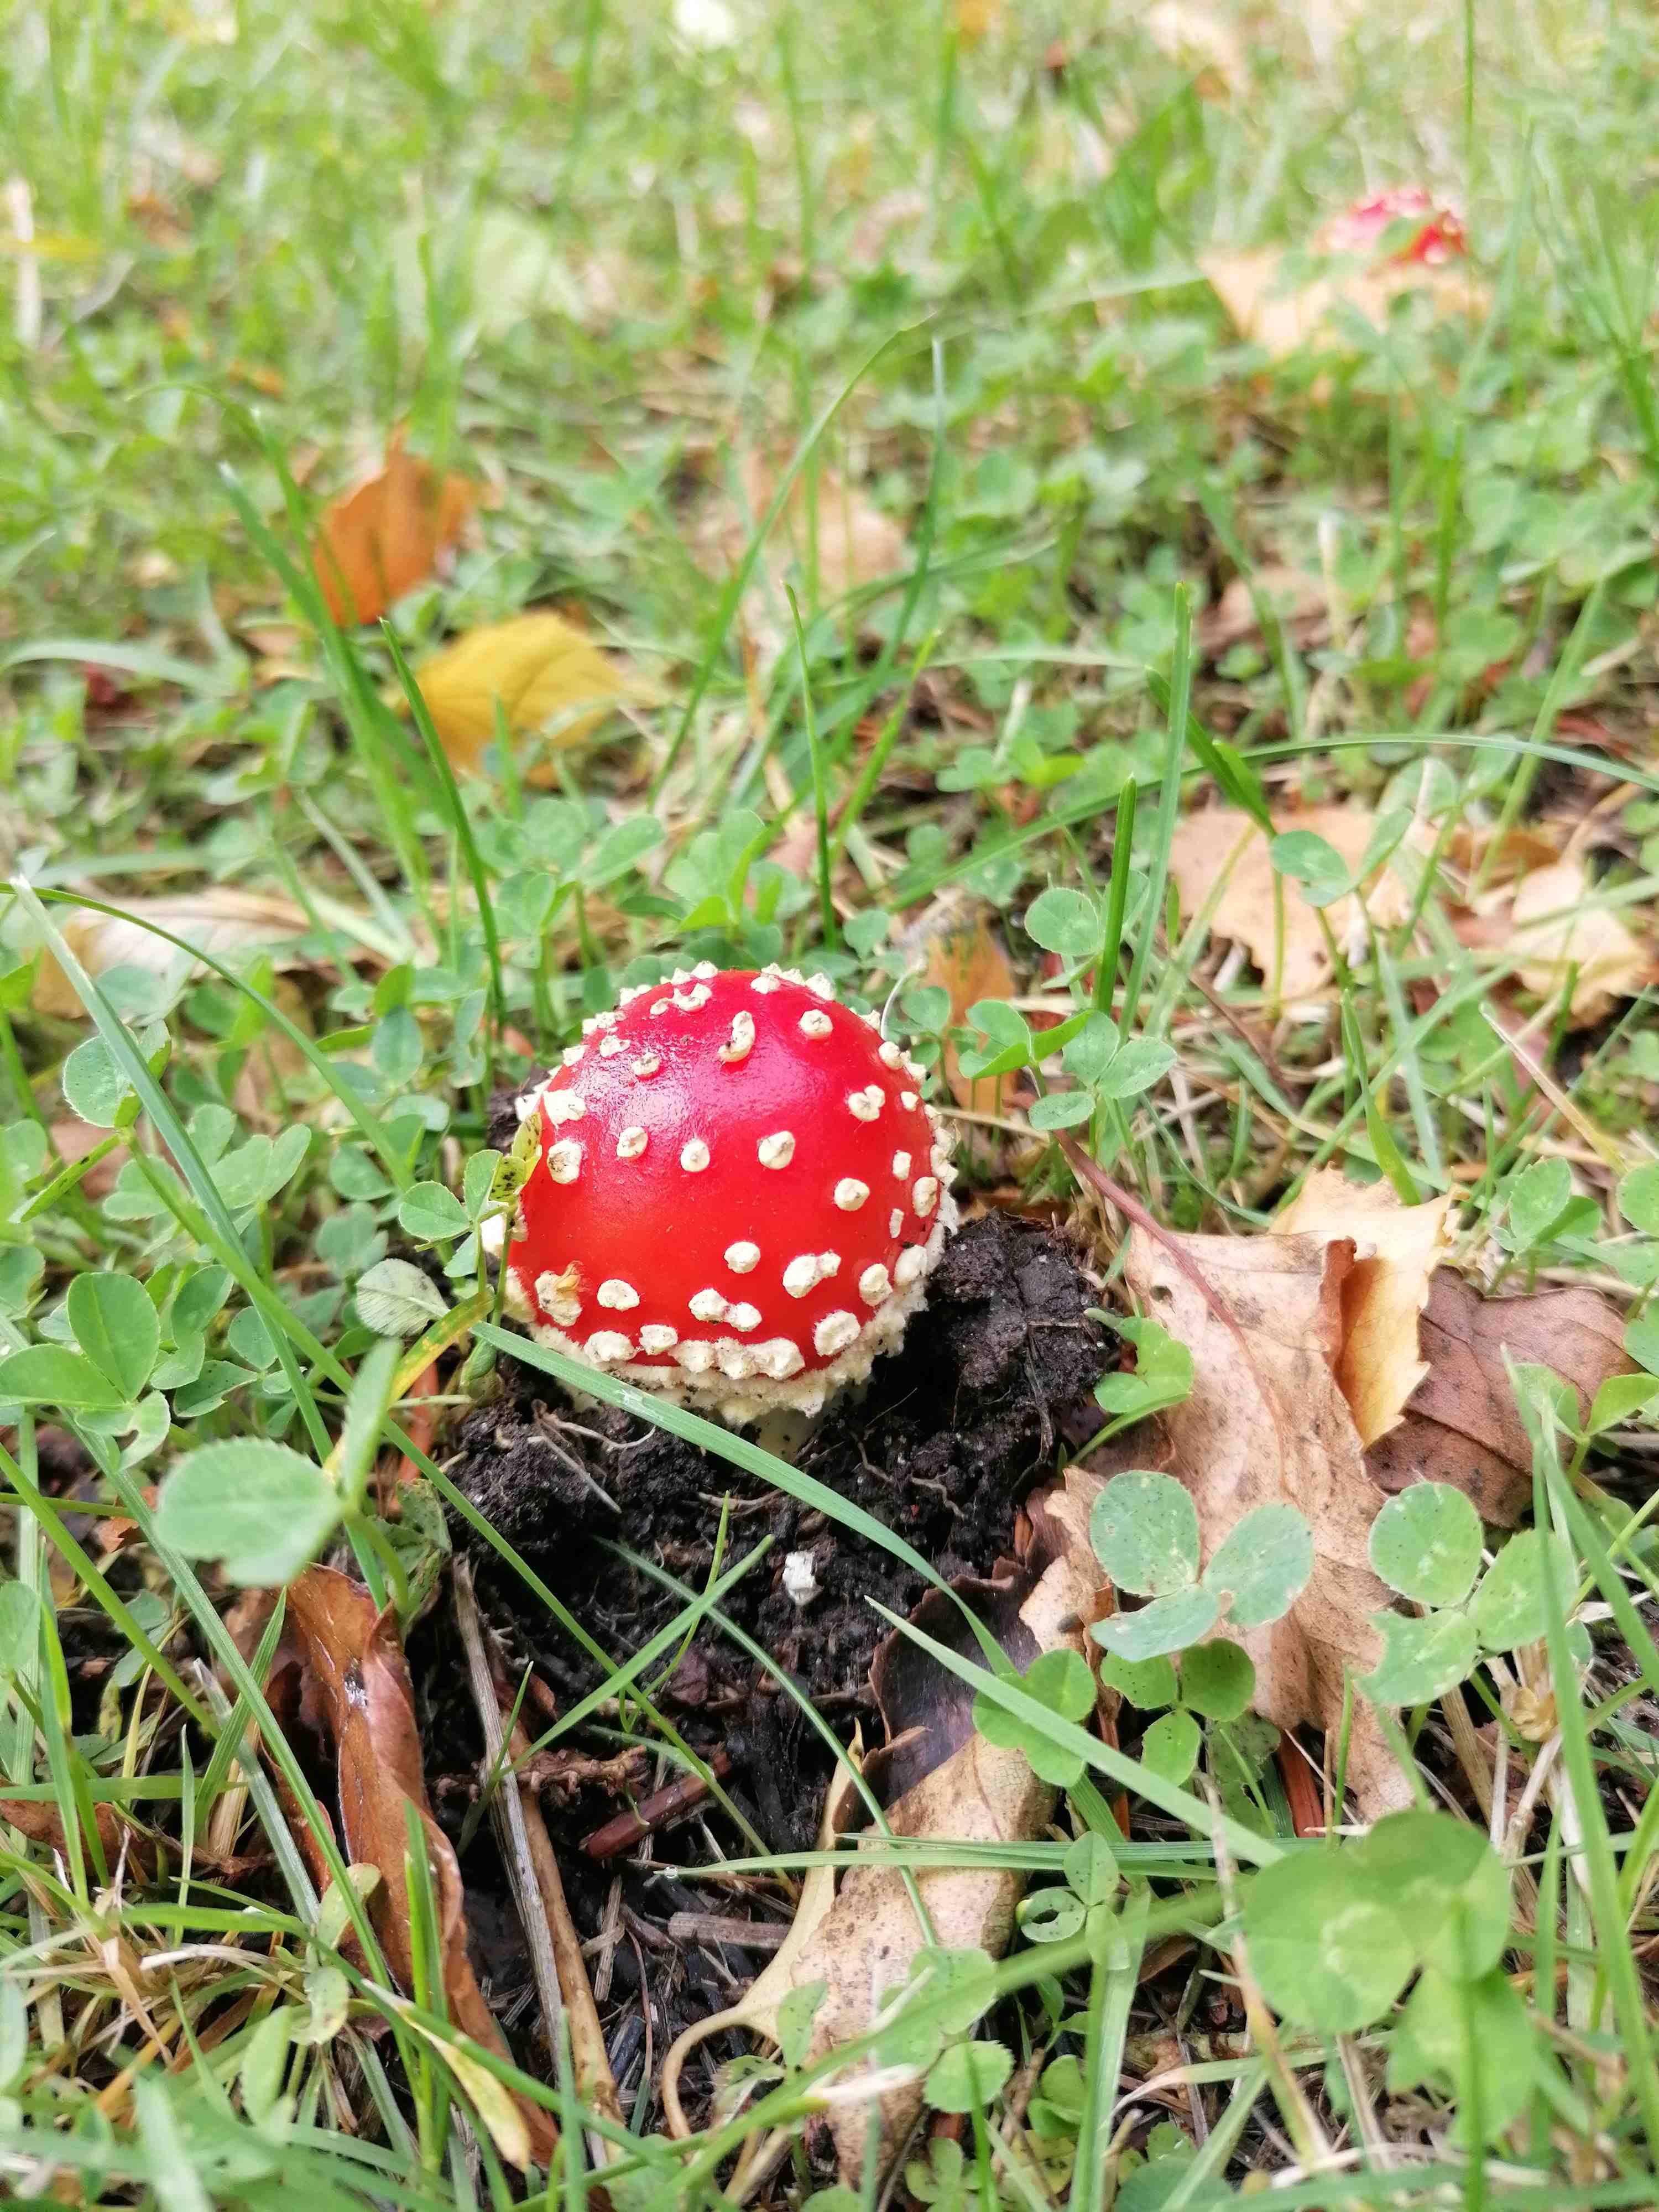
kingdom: Fungi
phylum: Basidiomycota
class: Agaricomycetes
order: Agaricales
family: Amanitaceae
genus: Amanita
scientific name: Amanita muscaria
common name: rød fluesvamp
